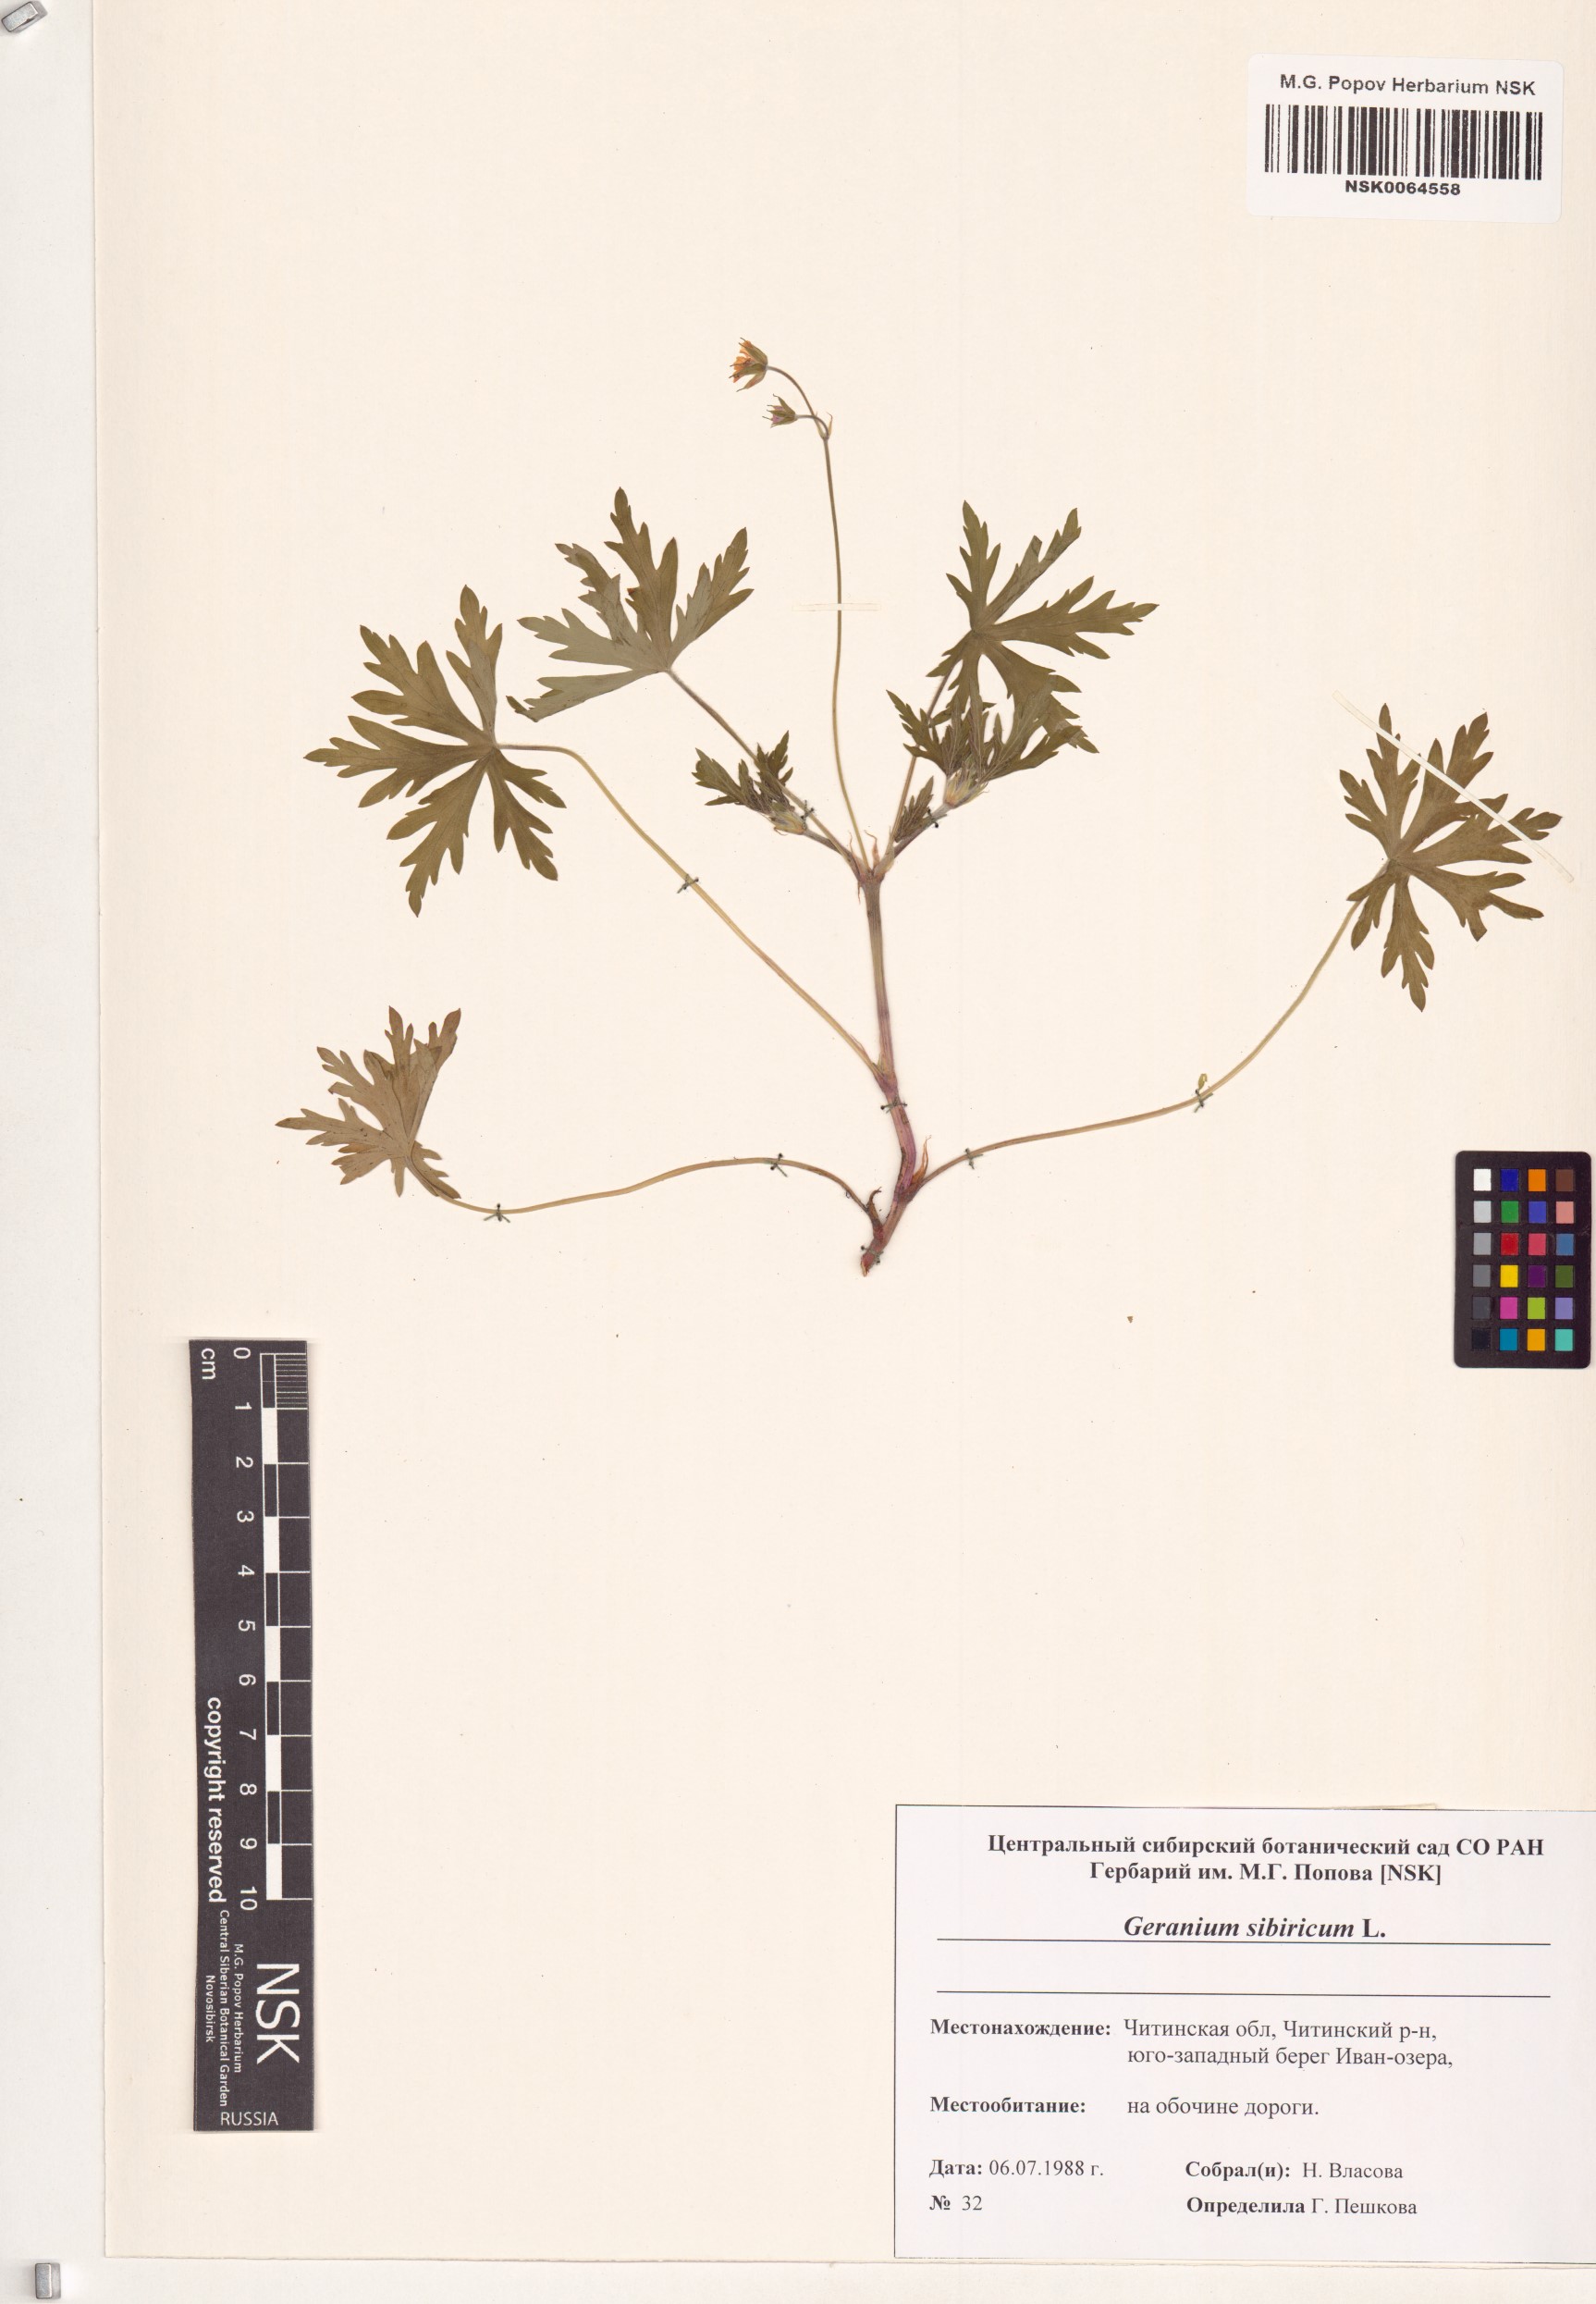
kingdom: Plantae
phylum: Tracheophyta
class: Magnoliopsida
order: Geraniales
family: Geraniaceae
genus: Geranium
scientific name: Geranium sibiricum
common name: Siberian crane's-bill
